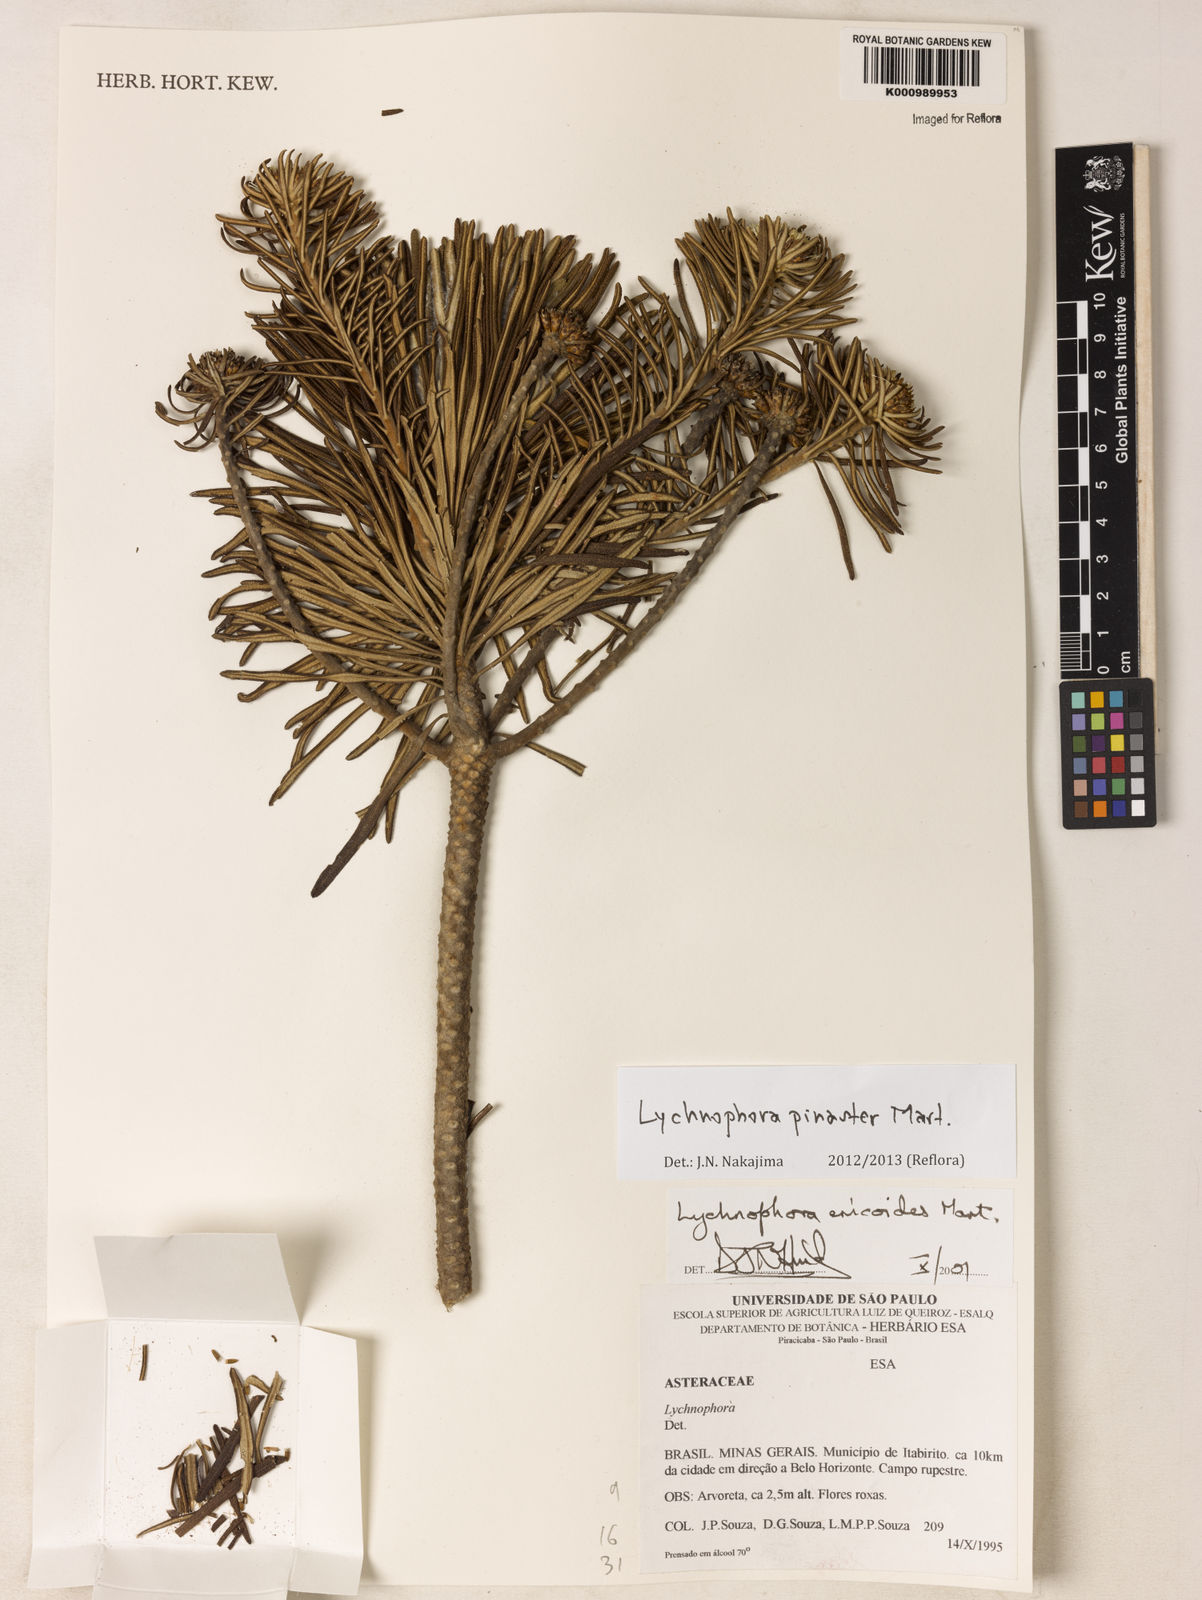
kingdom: Plantae
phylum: Tracheophyta
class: Magnoliopsida
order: Asterales
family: Asteraceae
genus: Lychnophora
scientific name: Lychnophora pinaster
